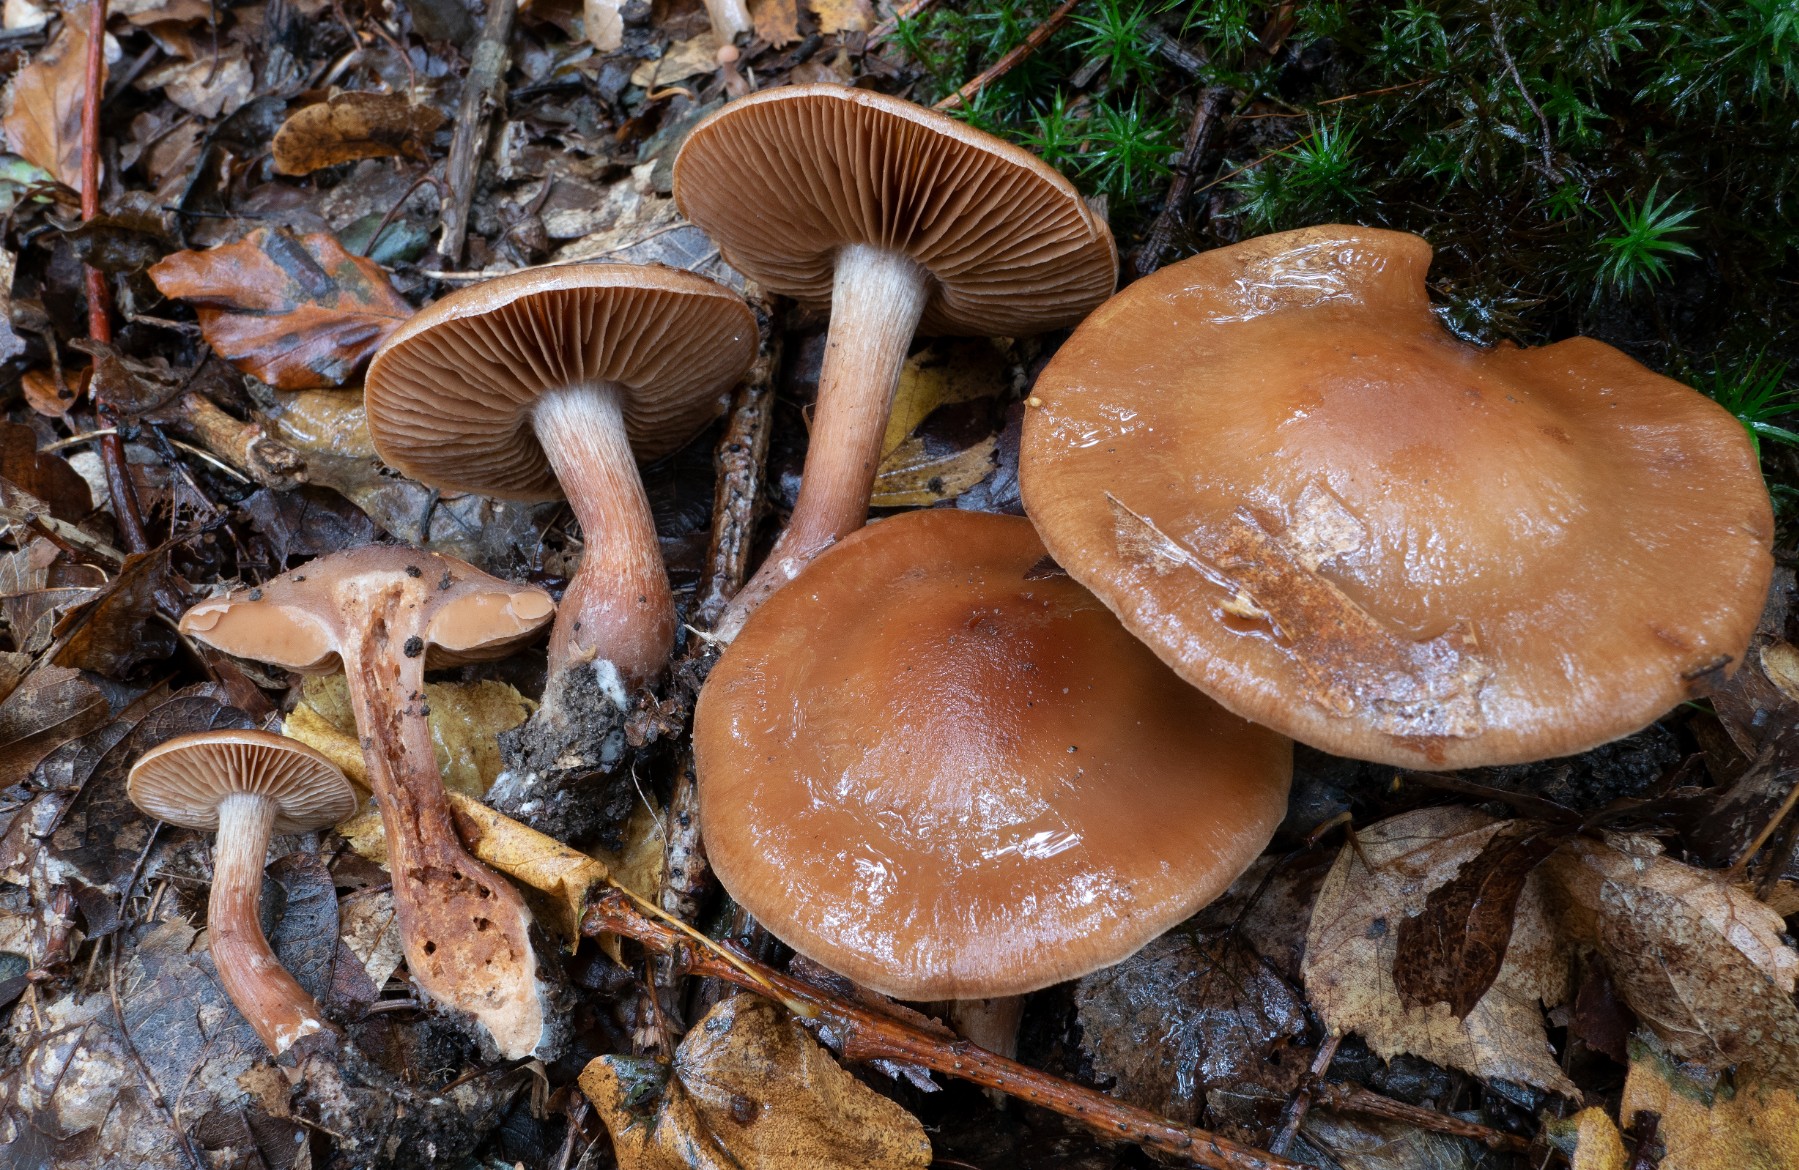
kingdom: Fungi
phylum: Basidiomycota
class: Agaricomycetes
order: Agaricales
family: Cortinariaceae
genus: Cortinarius
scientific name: Cortinarius
